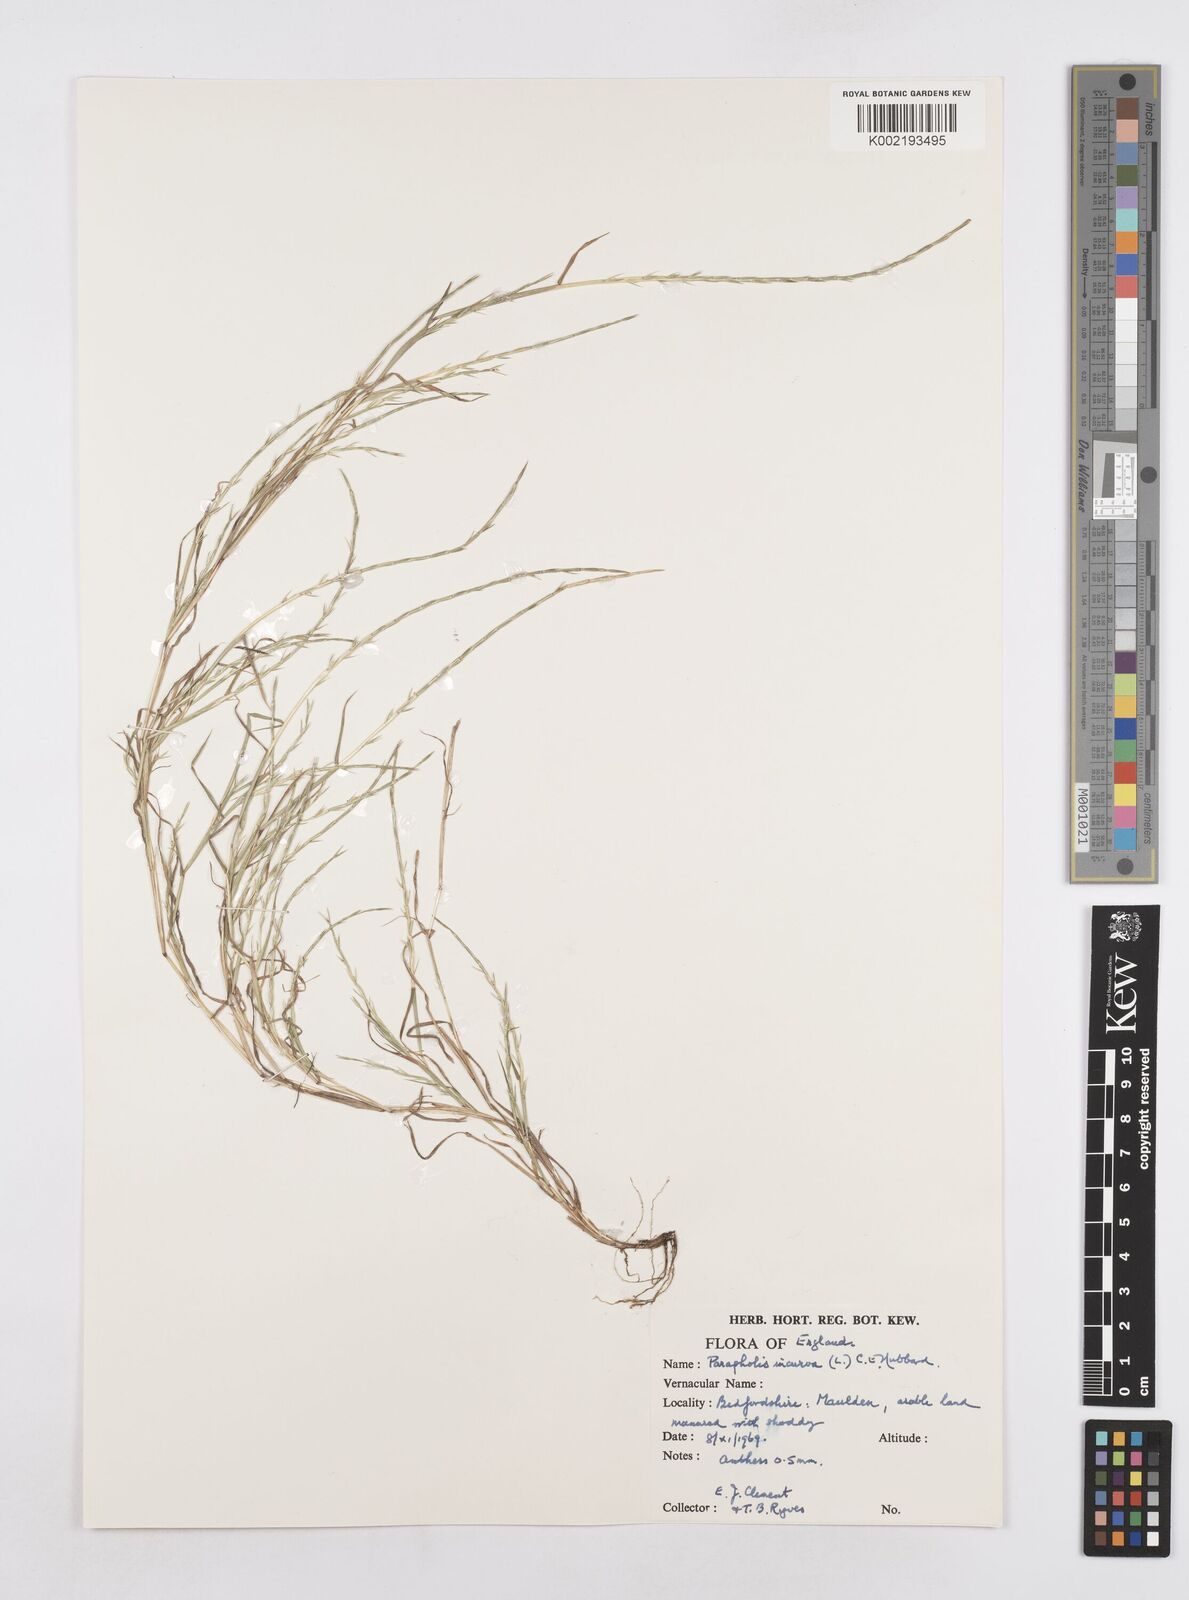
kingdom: Plantae
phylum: Tracheophyta
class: Liliopsida
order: Poales
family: Poaceae
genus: Parapholis
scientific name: Parapholis incurva
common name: Curved sicklegrass
